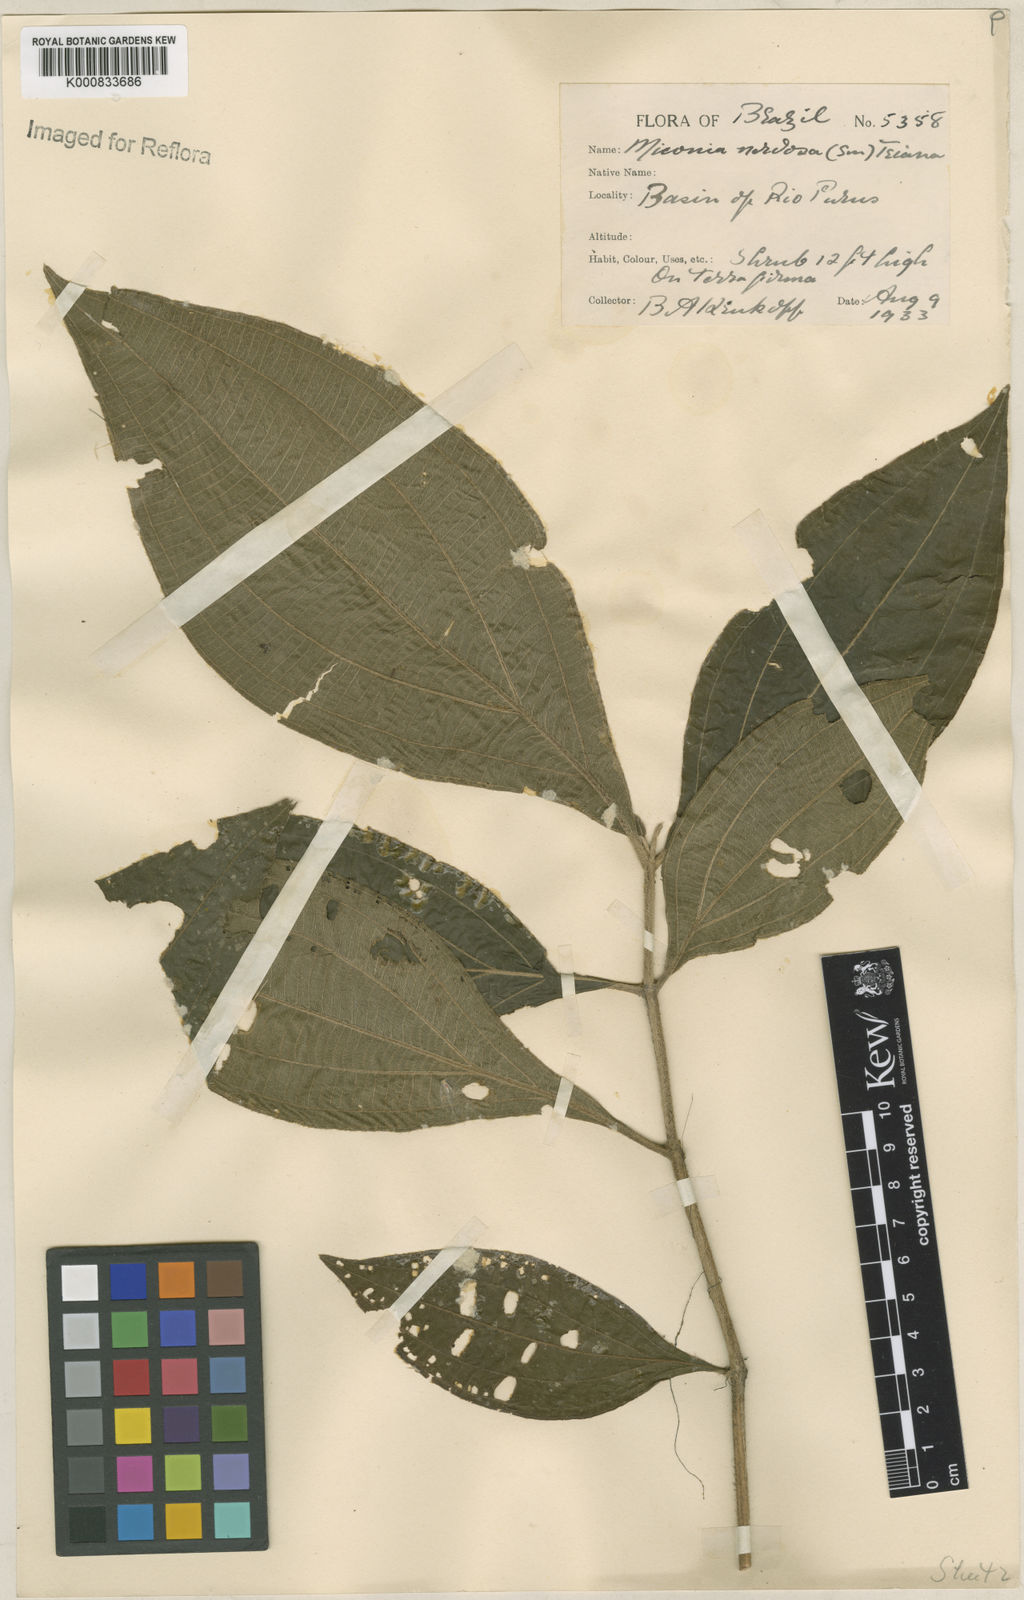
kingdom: Plantae
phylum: Tracheophyta
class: Magnoliopsida
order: Myrtales
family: Melastomataceae
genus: Miconia
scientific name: Miconia nervosa
